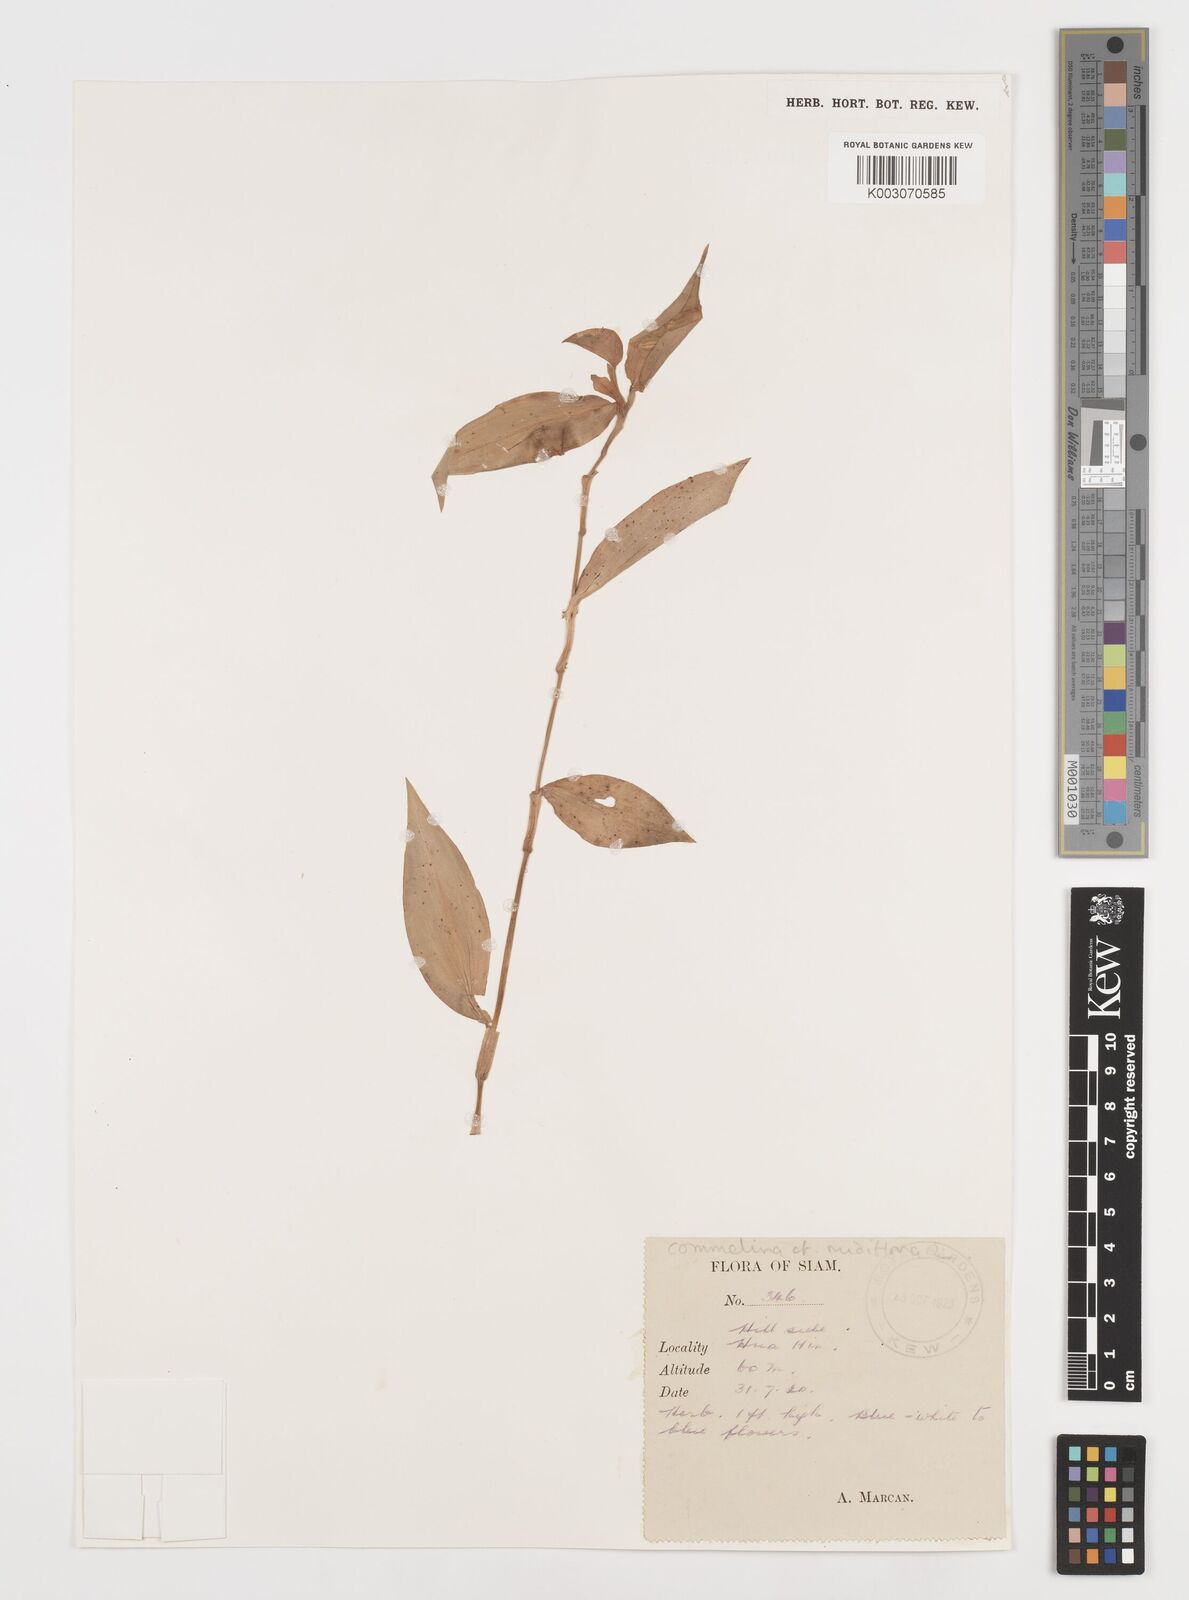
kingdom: Plantae
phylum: Tracheophyta
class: Liliopsida
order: Commelinales
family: Commelinaceae
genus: Commelina
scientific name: Commelina clavata
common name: Willow leaved dayflower
